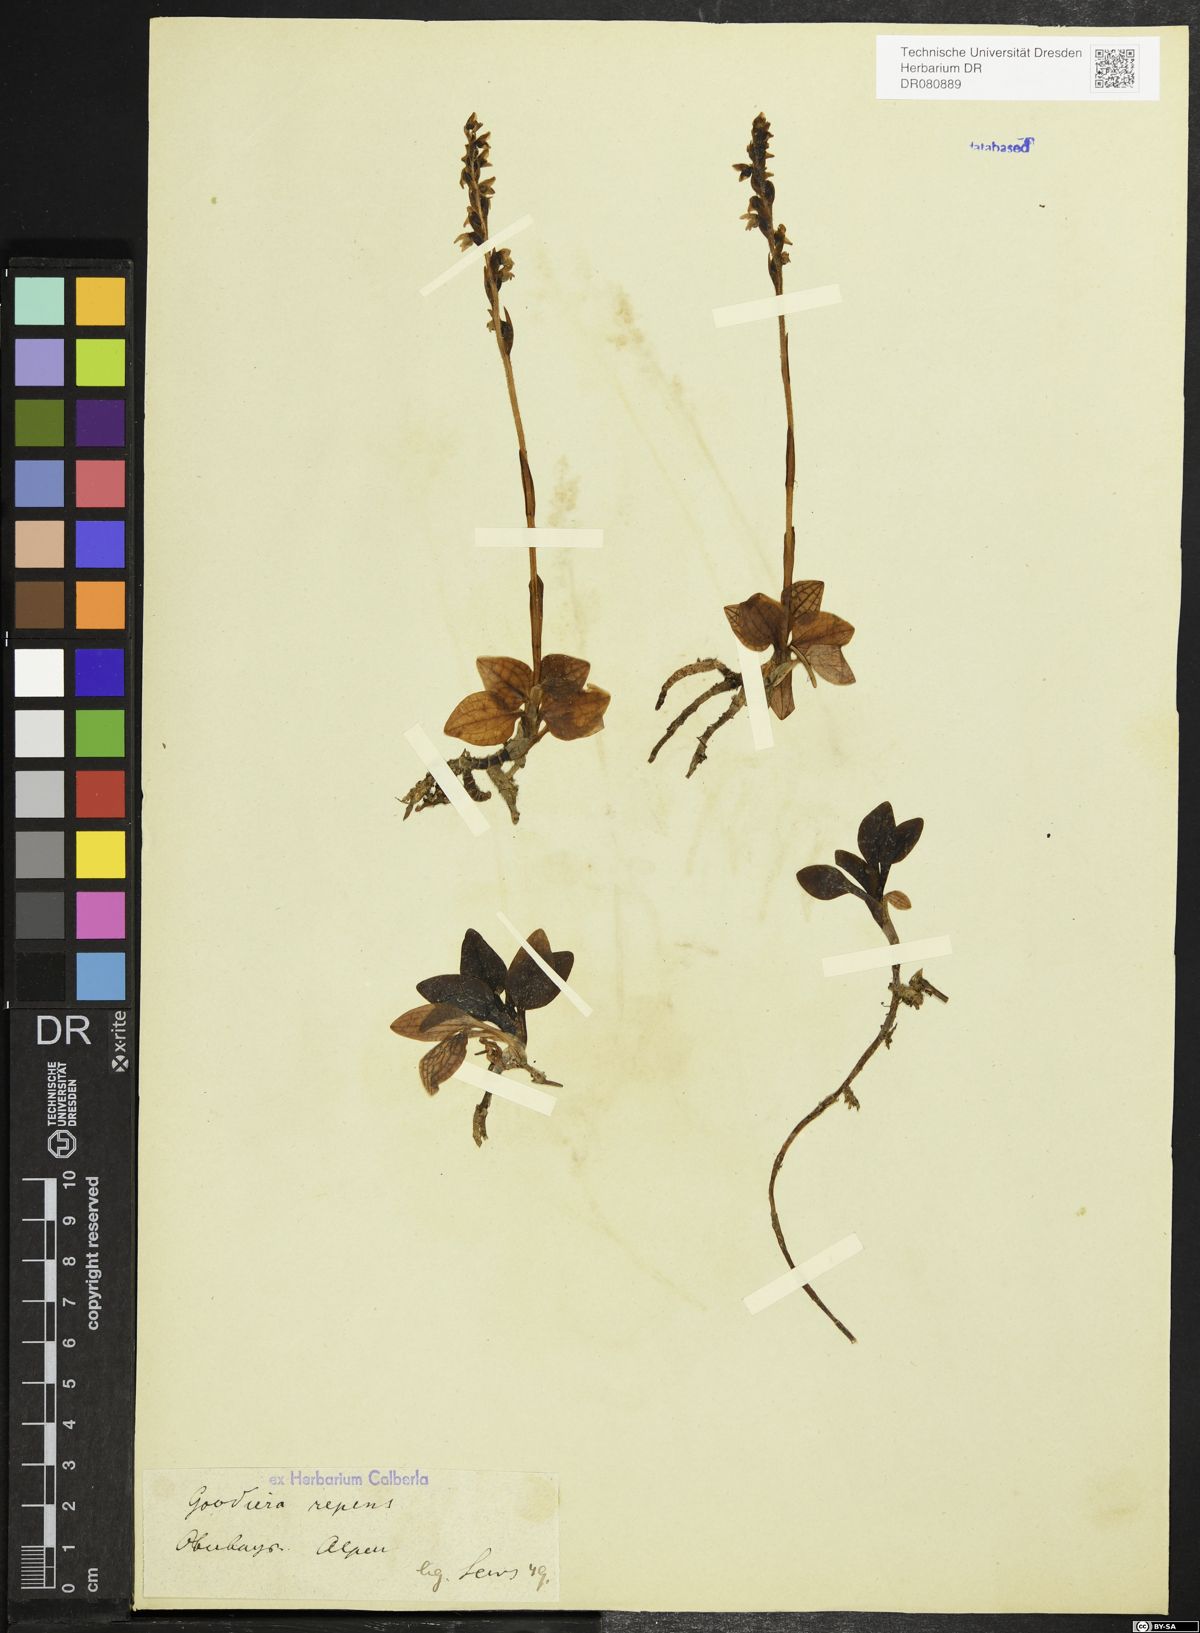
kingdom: Plantae
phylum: Tracheophyta
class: Liliopsida
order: Asparagales
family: Orchidaceae
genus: Goodyera
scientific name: Goodyera repens
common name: Creeping lady's-tresses
